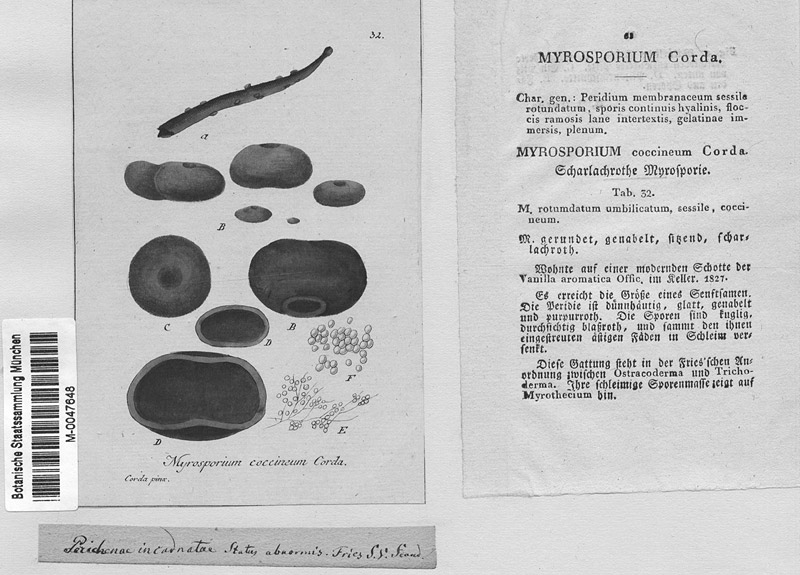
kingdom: Protozoa
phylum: Mycetozoa
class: Myxomycetes
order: Trichiales
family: Arcyriaceae
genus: Arcyodes
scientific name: Arcyodes incarnata
